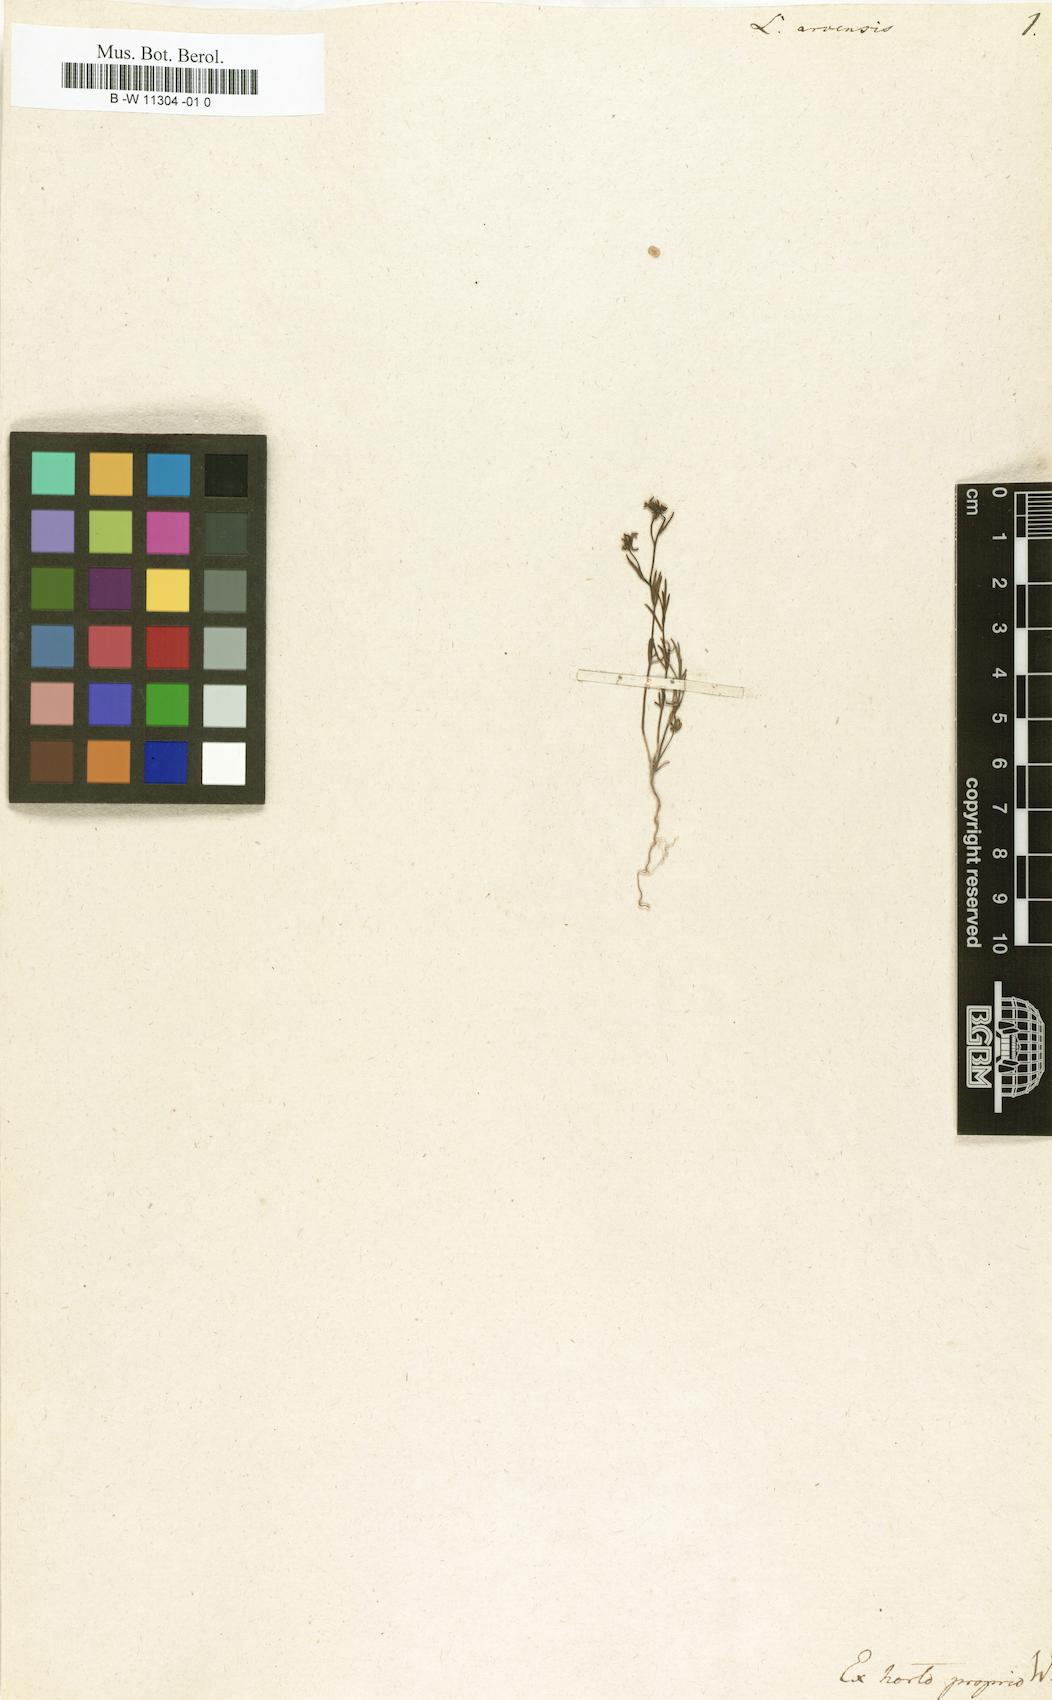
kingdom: Plantae
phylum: Tracheophyta
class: Magnoliopsida
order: Lamiales
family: Plantaginaceae
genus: Linaria
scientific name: Linaria arvensis
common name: Corn toadflax
